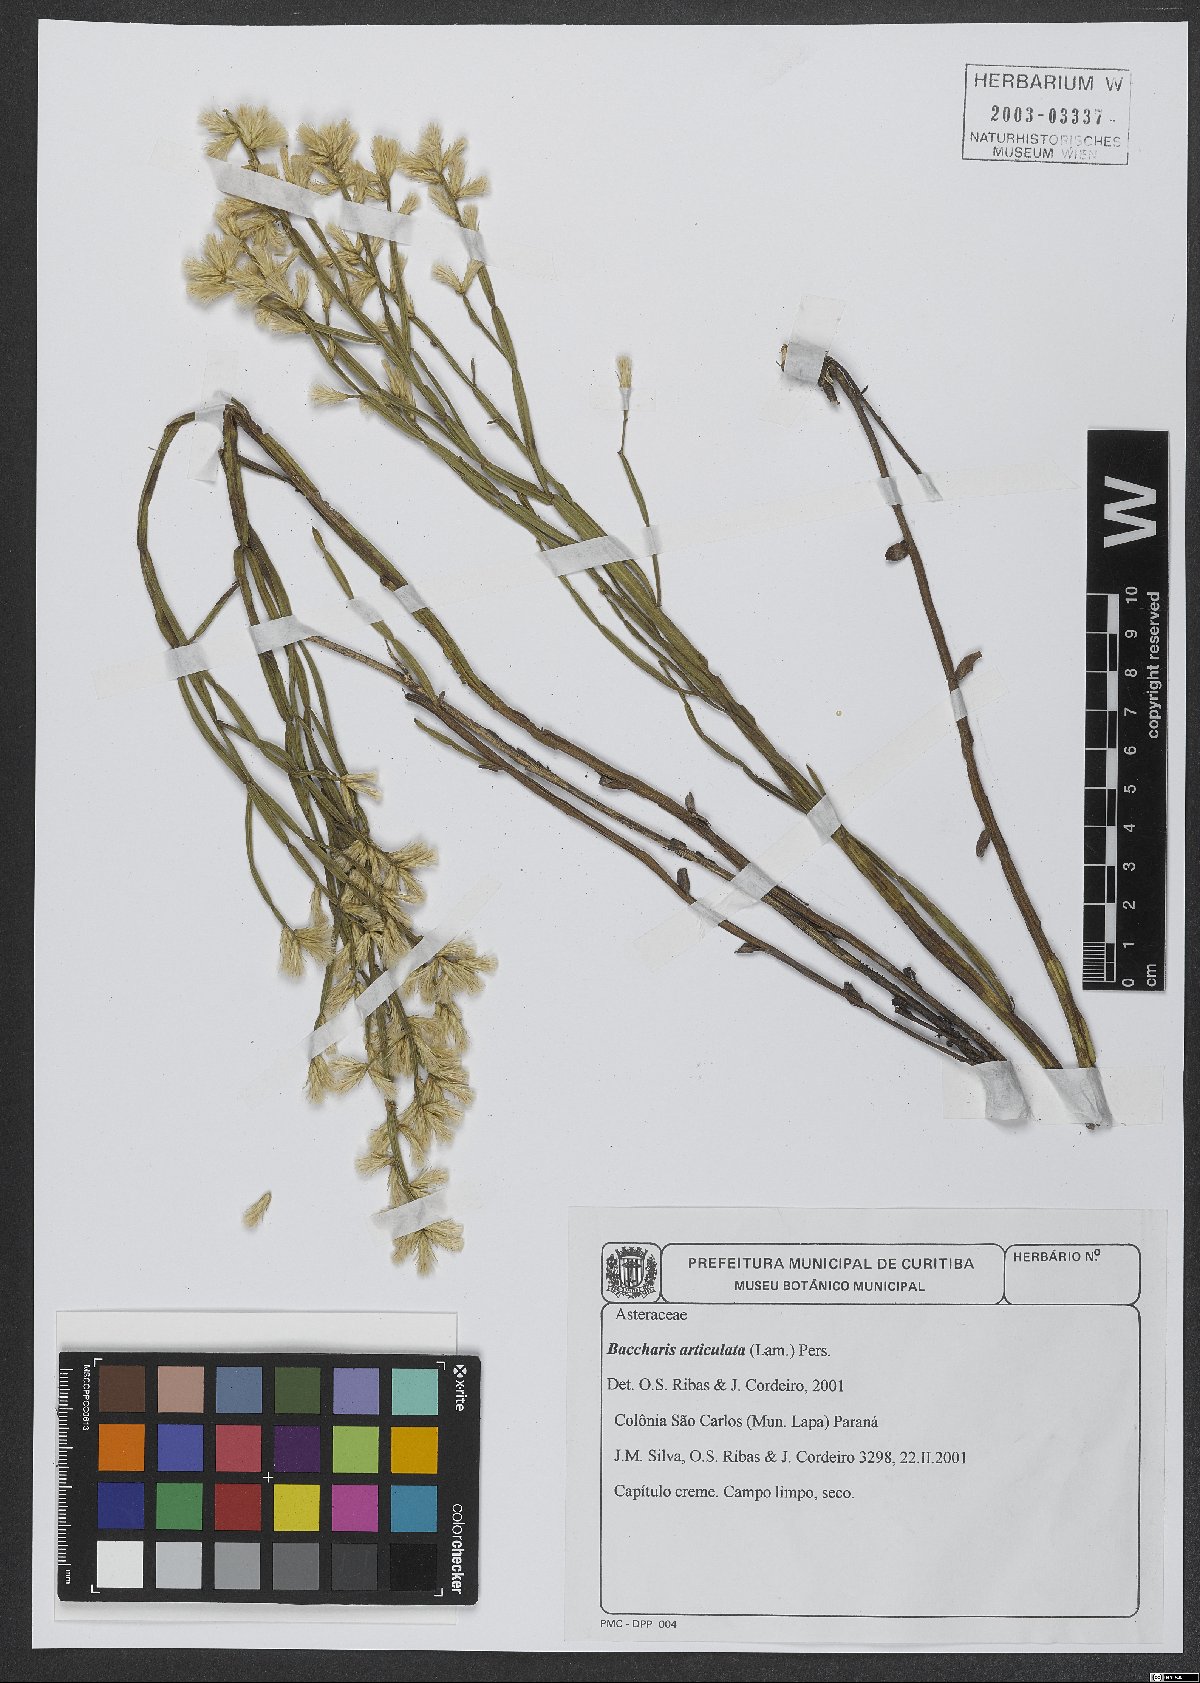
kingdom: Plantae
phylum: Tracheophyta
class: Magnoliopsida
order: Asterales
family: Asteraceae
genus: Baccharis
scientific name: Baccharis articulata
